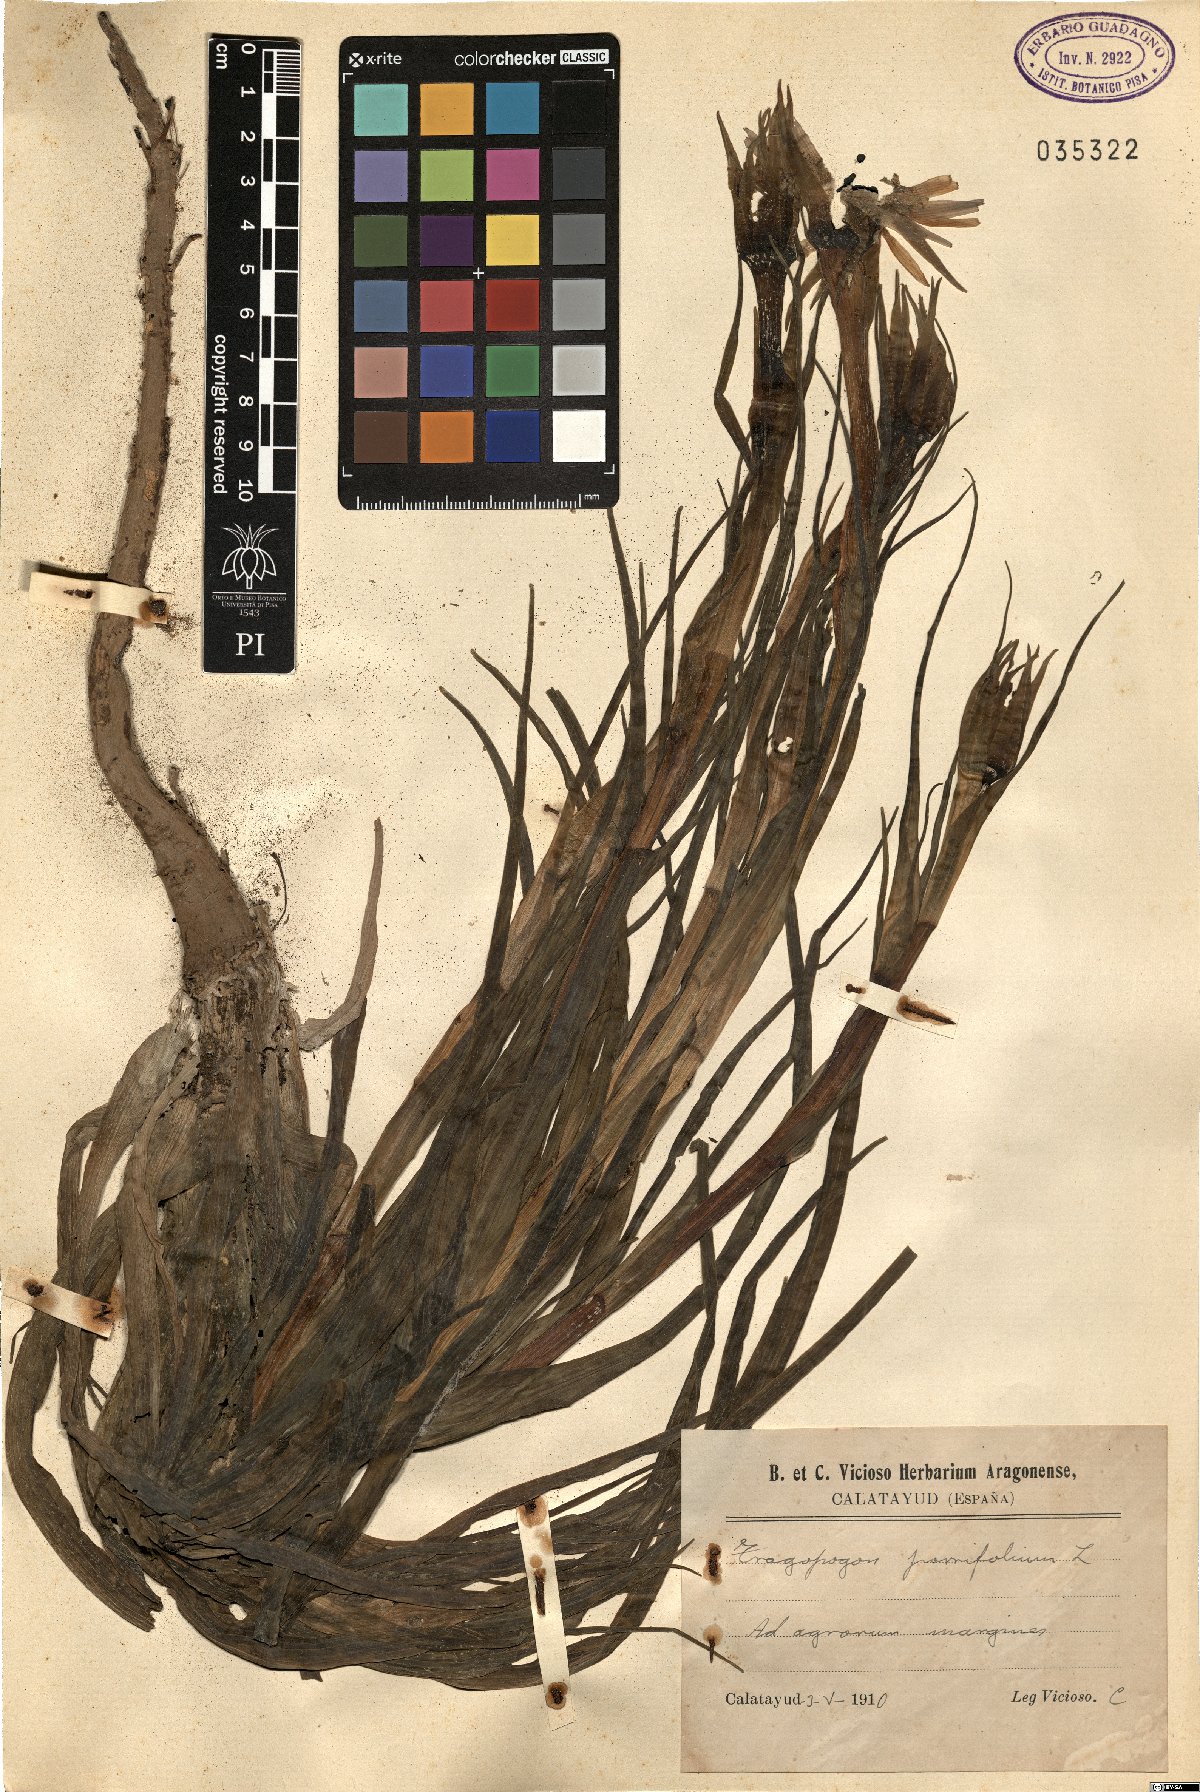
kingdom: Plantae
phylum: Tracheophyta
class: Magnoliopsida
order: Asterales
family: Asteraceae
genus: Tragopogon
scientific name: Tragopogon porrifolius
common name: Salsify
